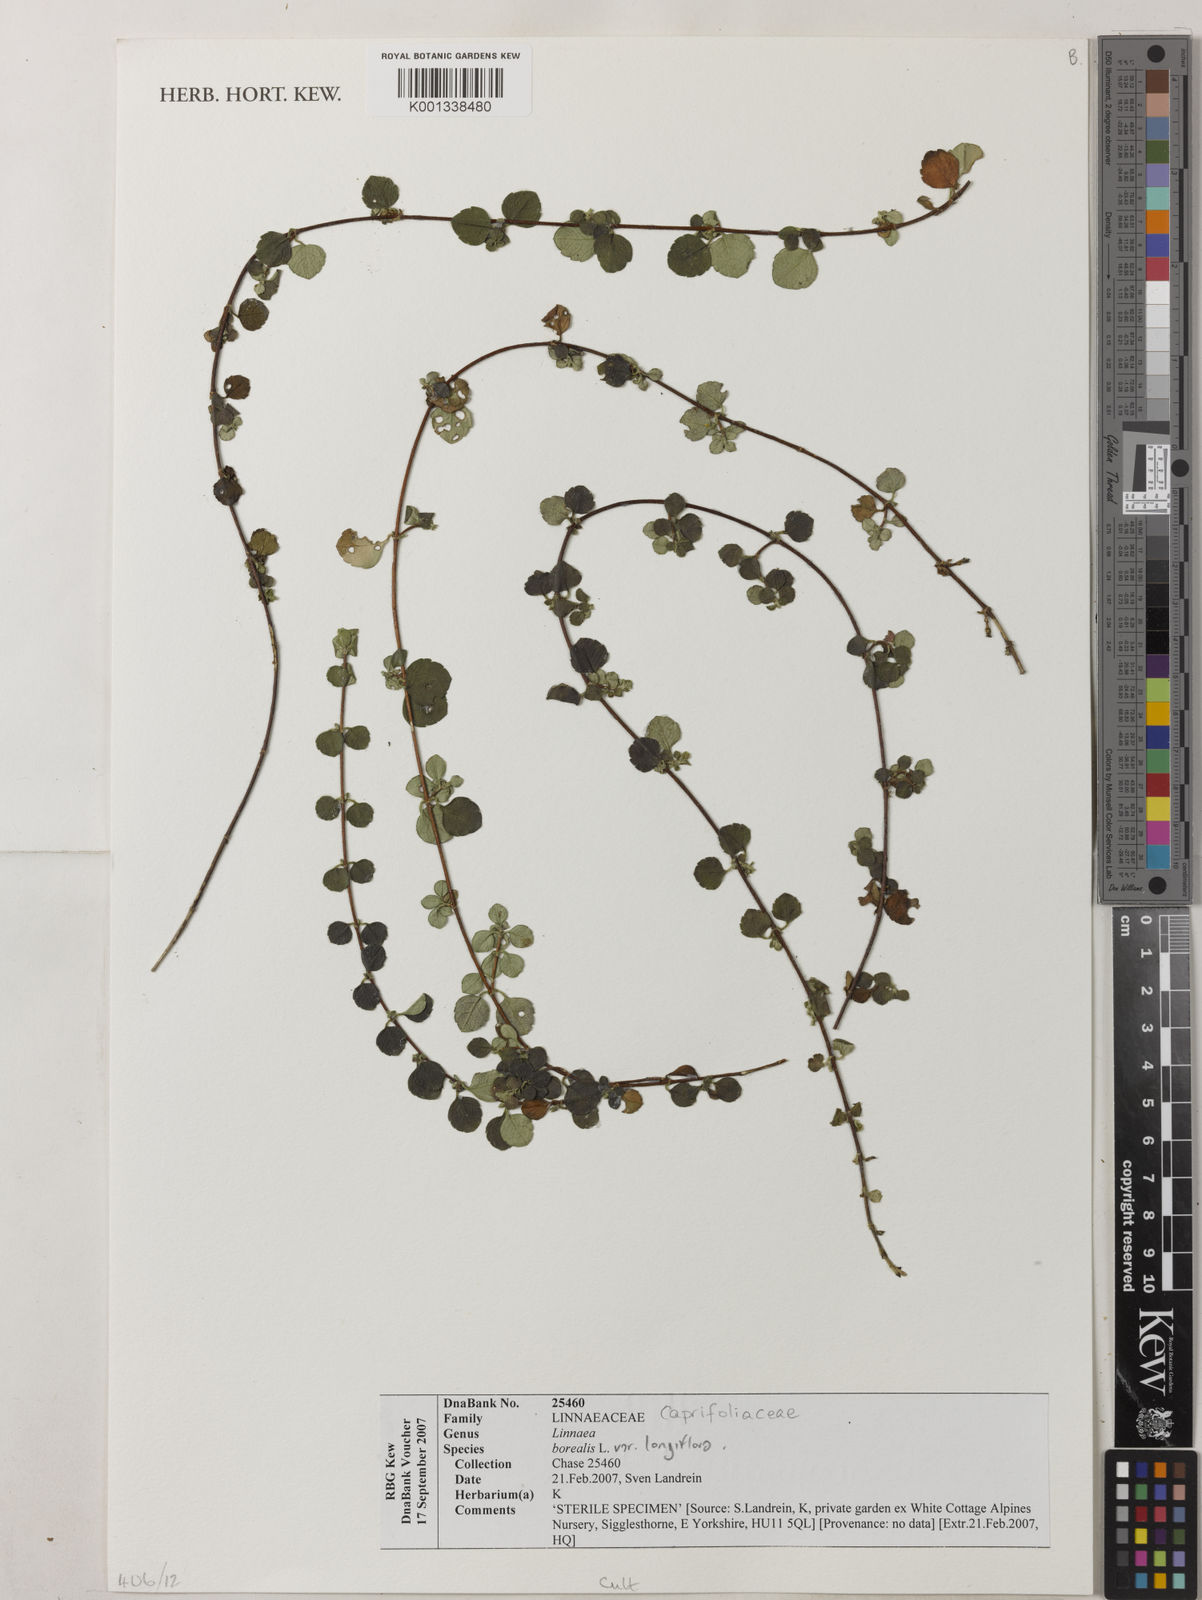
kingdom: Plantae
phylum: Tracheophyta
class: Magnoliopsida
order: Dipsacales
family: Caprifoliaceae
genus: Linnaea
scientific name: Linnaea borealis
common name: Twinflower
